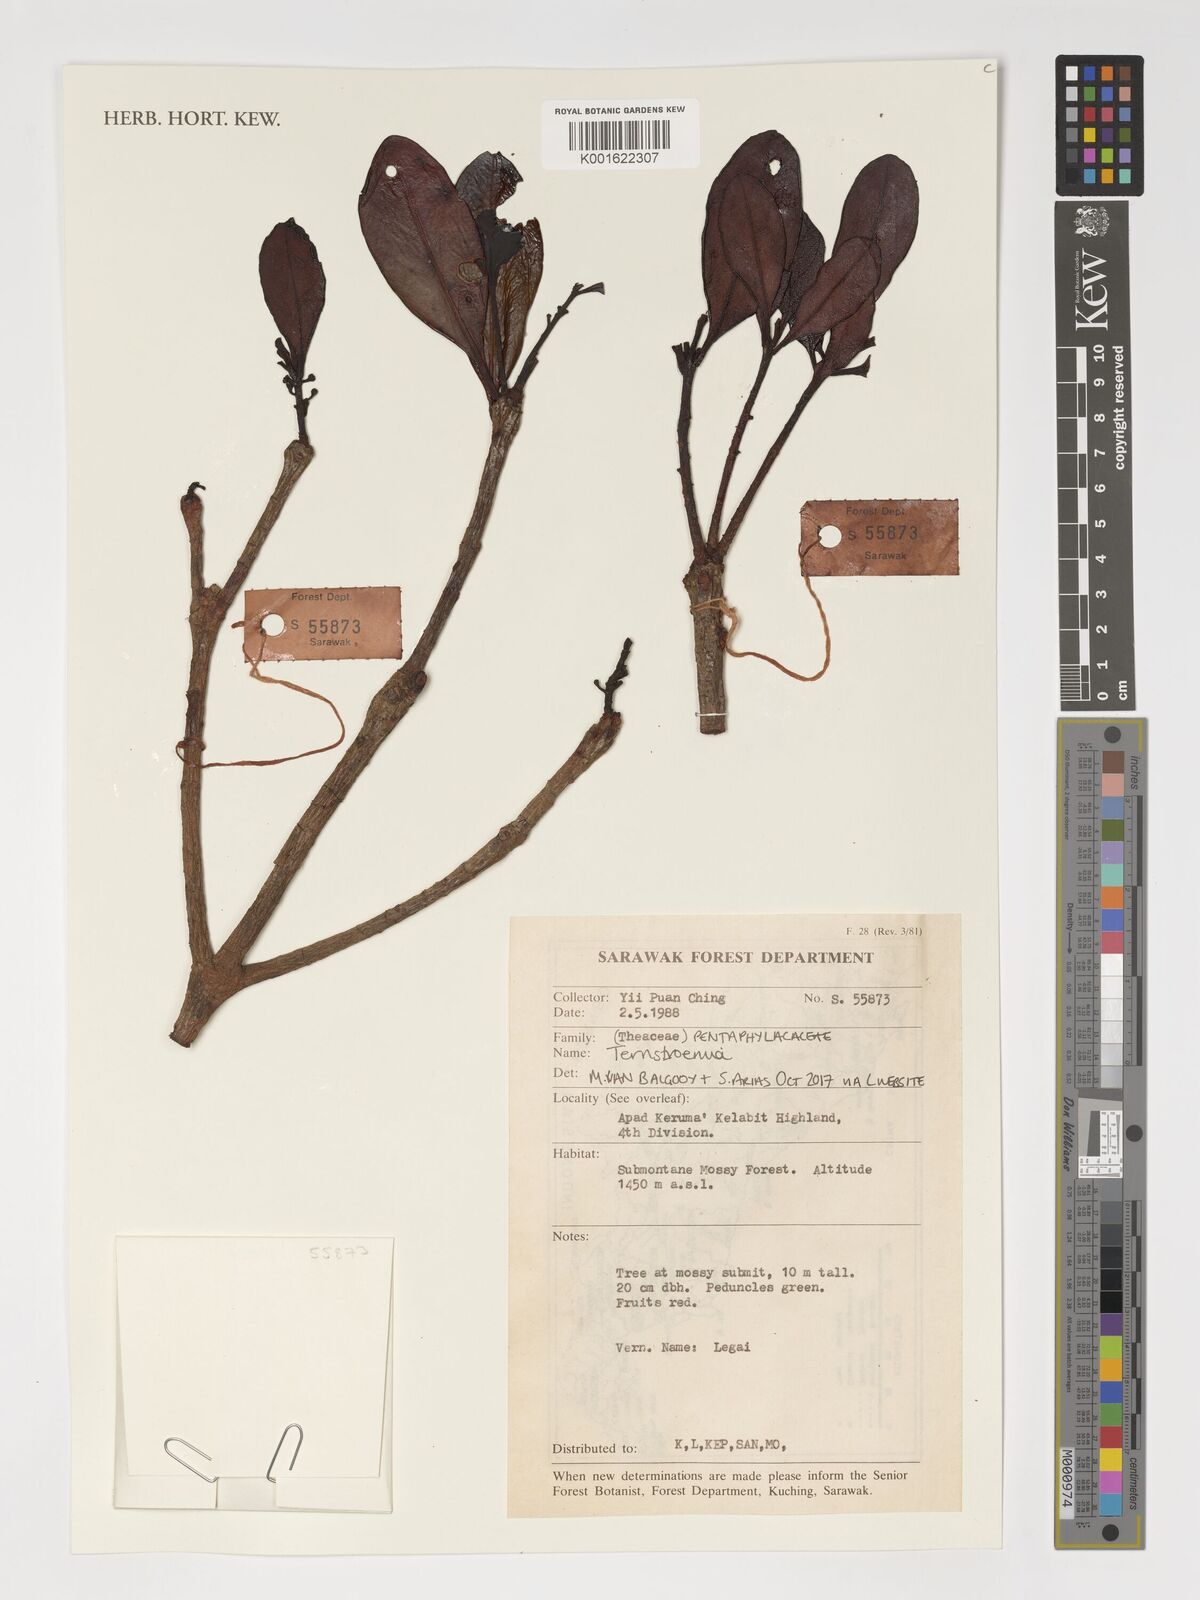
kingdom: Plantae
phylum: Tracheophyta
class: Magnoliopsida
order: Ericales
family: Pentaphylacaceae
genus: Ternstroemia
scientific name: Ternstroemia
